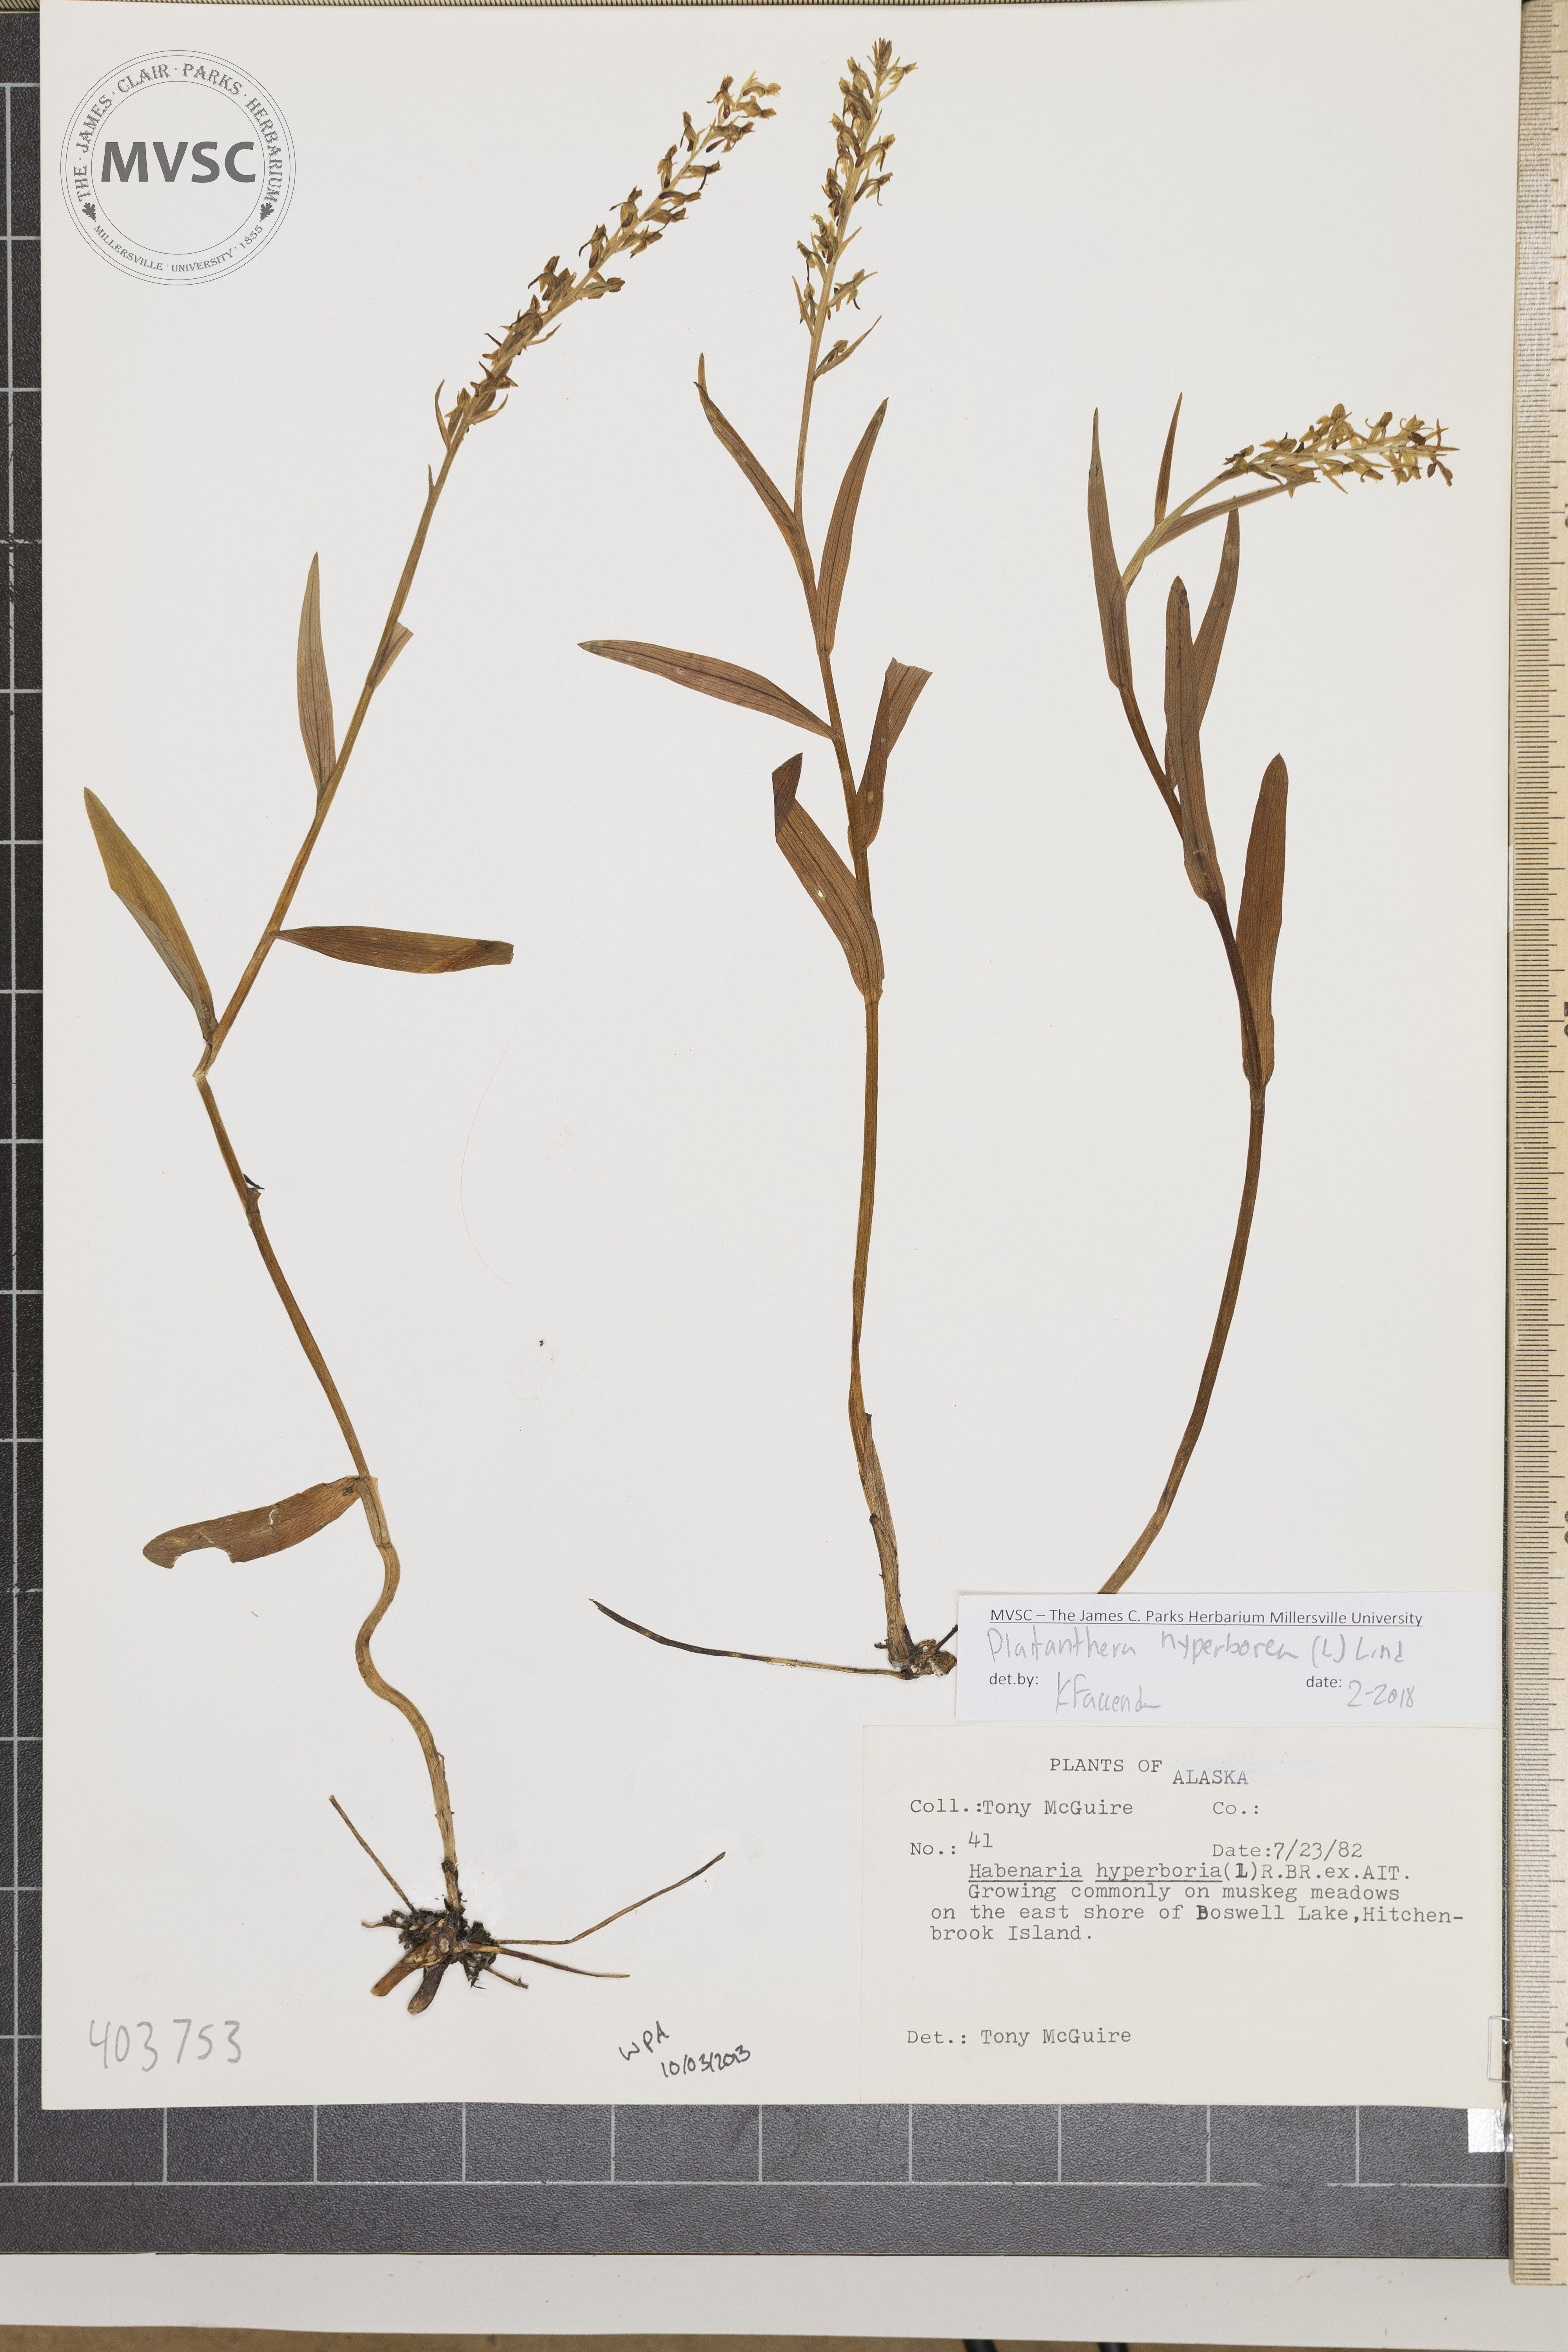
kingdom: Plantae
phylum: Tracheophyta
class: Liliopsida
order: Asparagales
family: Orchidaceae
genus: Platanthera
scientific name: Platanthera hyperborea
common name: Northern green orchid
